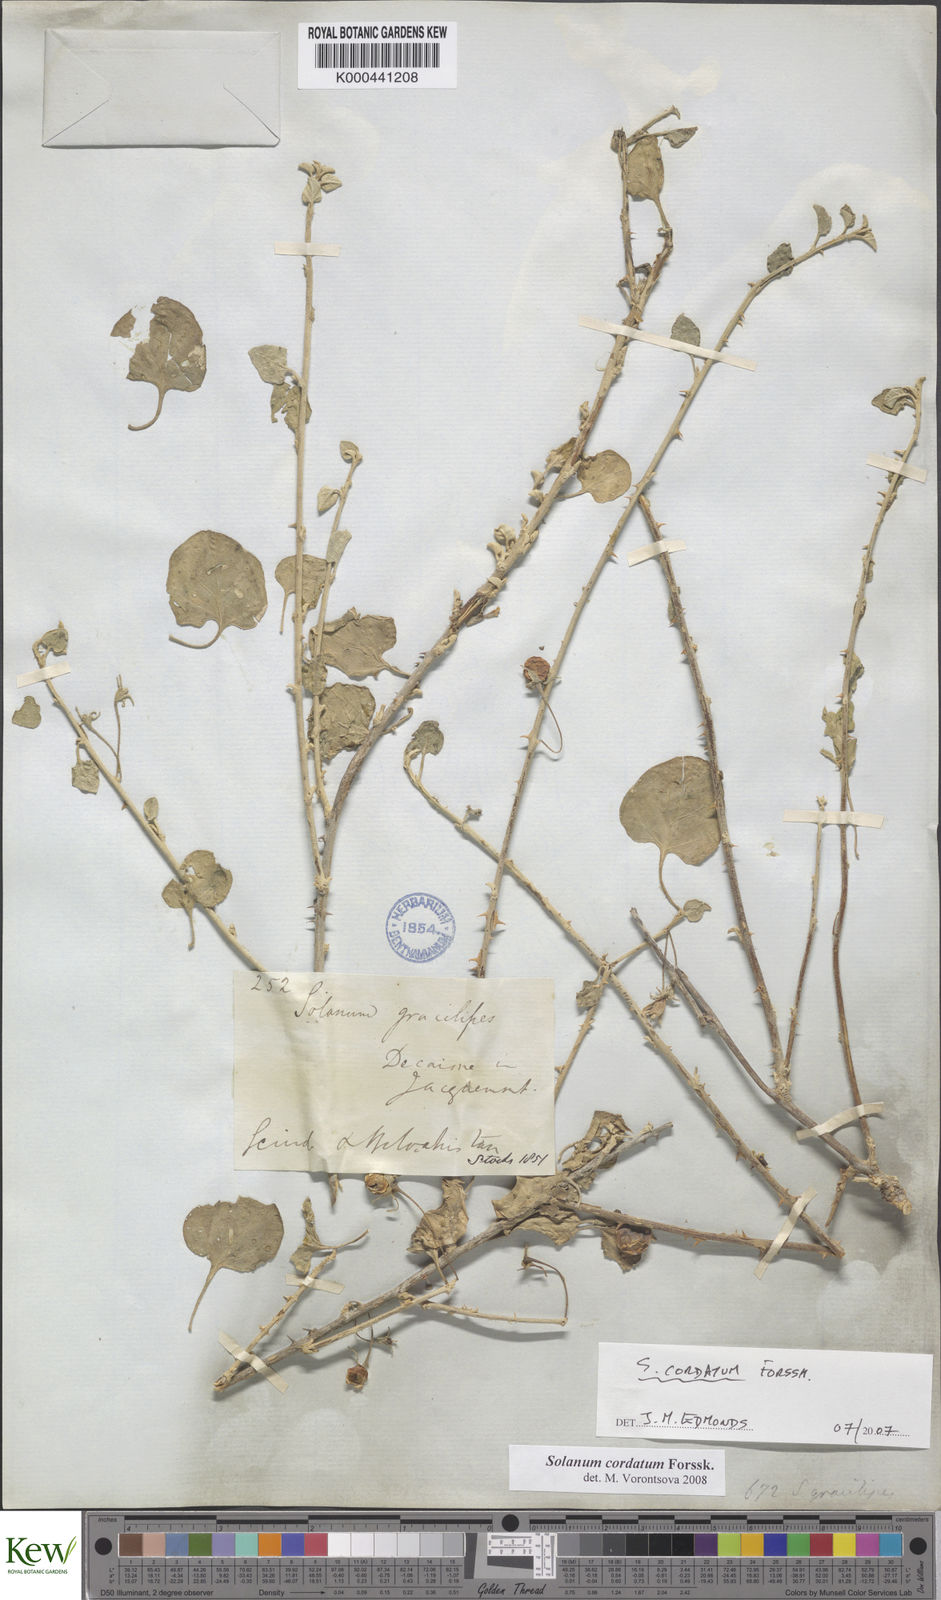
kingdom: Plantae
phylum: Tracheophyta
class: Magnoliopsida
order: Solanales
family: Solanaceae
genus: Solanum
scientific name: Solanum cordatum
